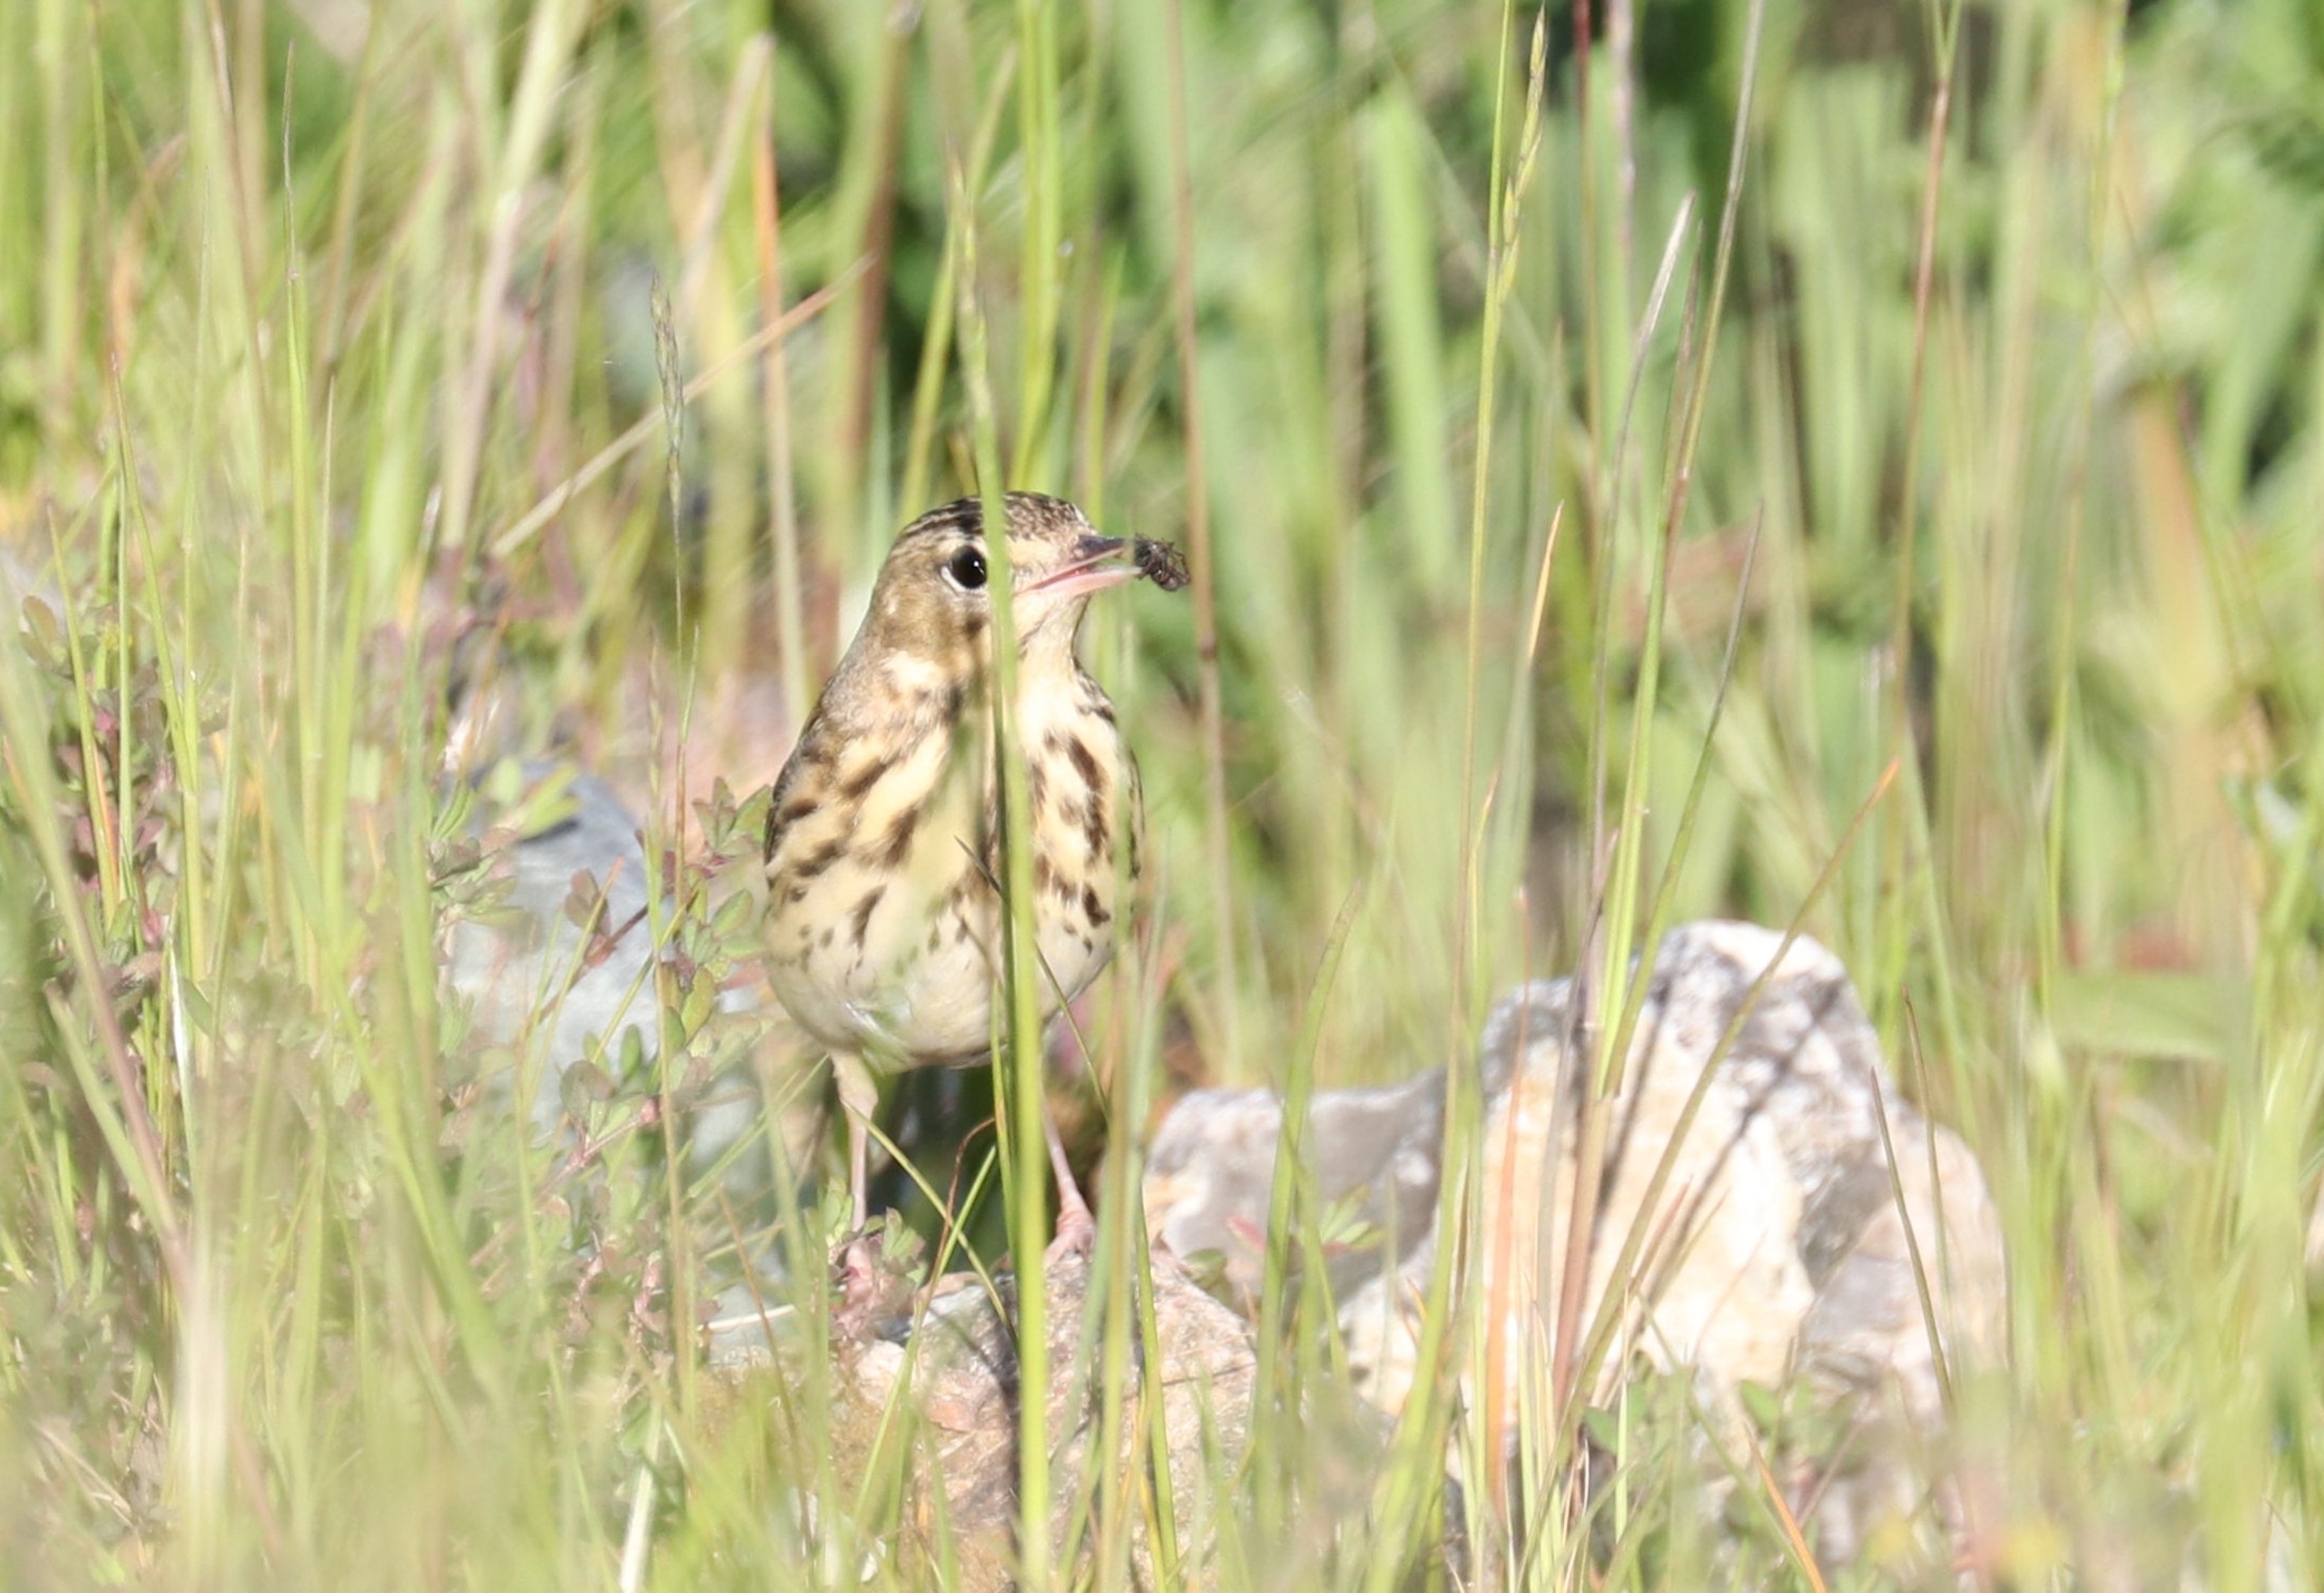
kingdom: Animalia
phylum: Chordata
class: Aves
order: Passeriformes
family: Motacillidae
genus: Anthus
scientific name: Anthus pratensis
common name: Engpiber
